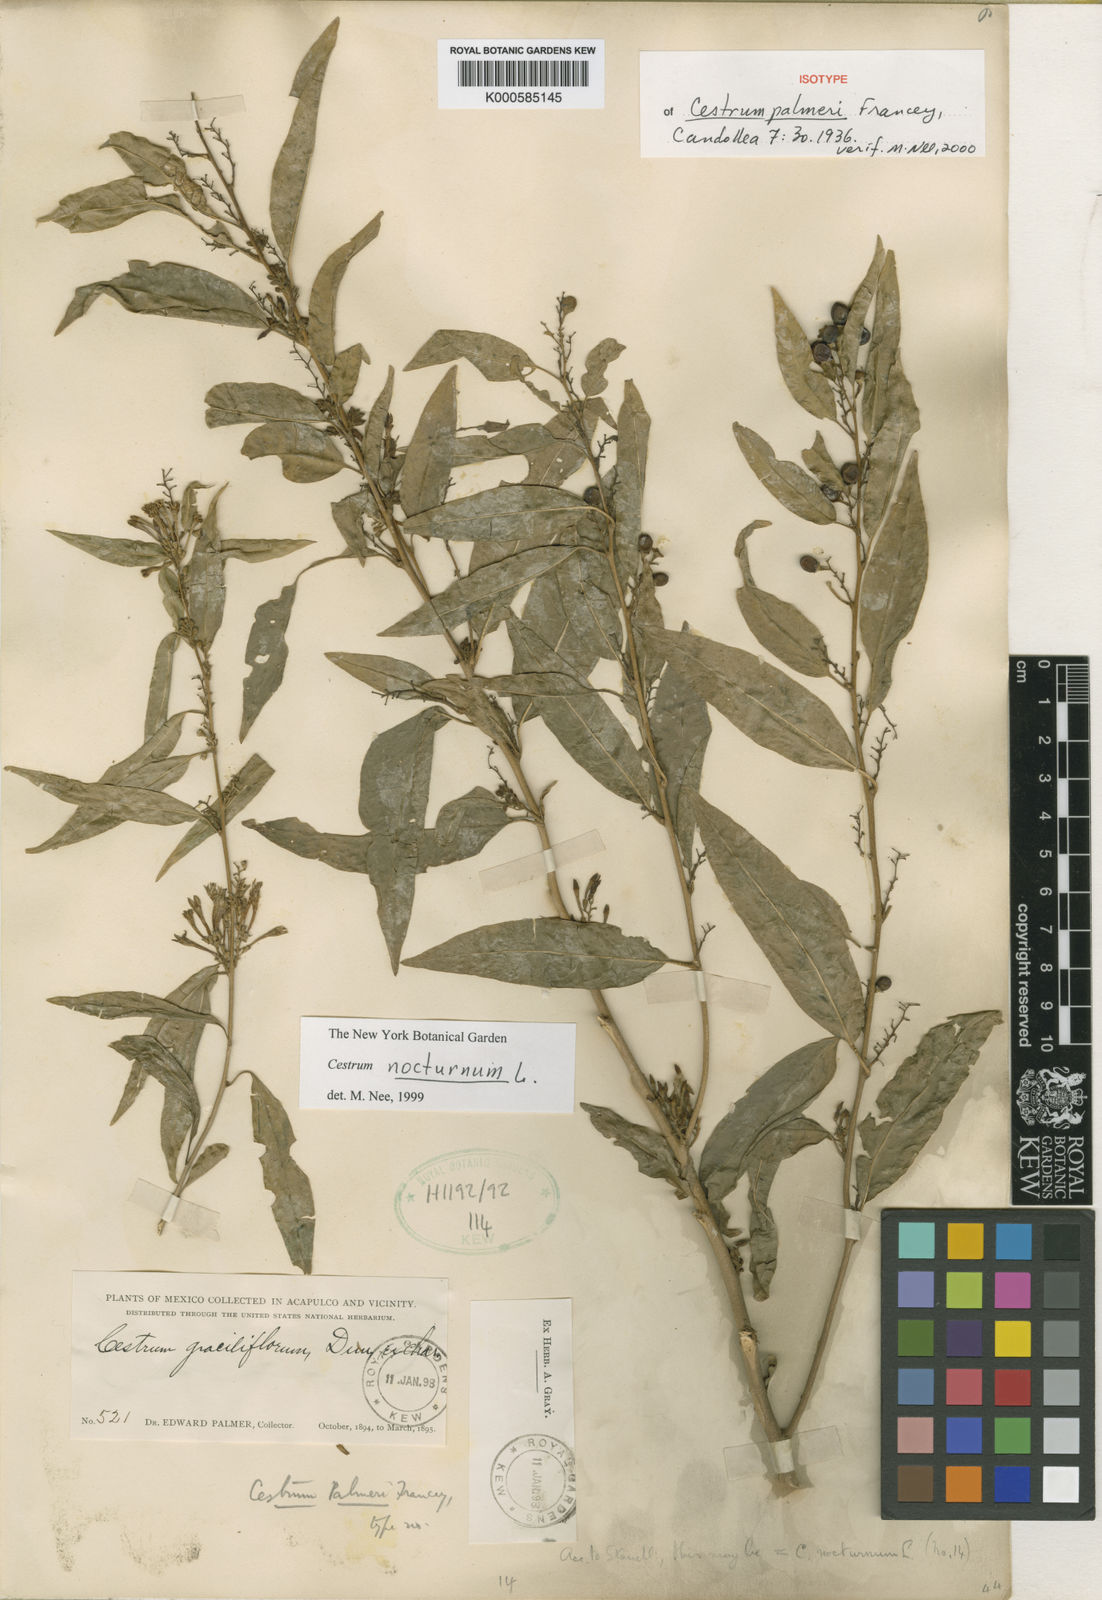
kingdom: Plantae
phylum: Tracheophyta
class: Magnoliopsida
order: Solanales
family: Solanaceae
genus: Cestrum
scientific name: Cestrum palmeri
